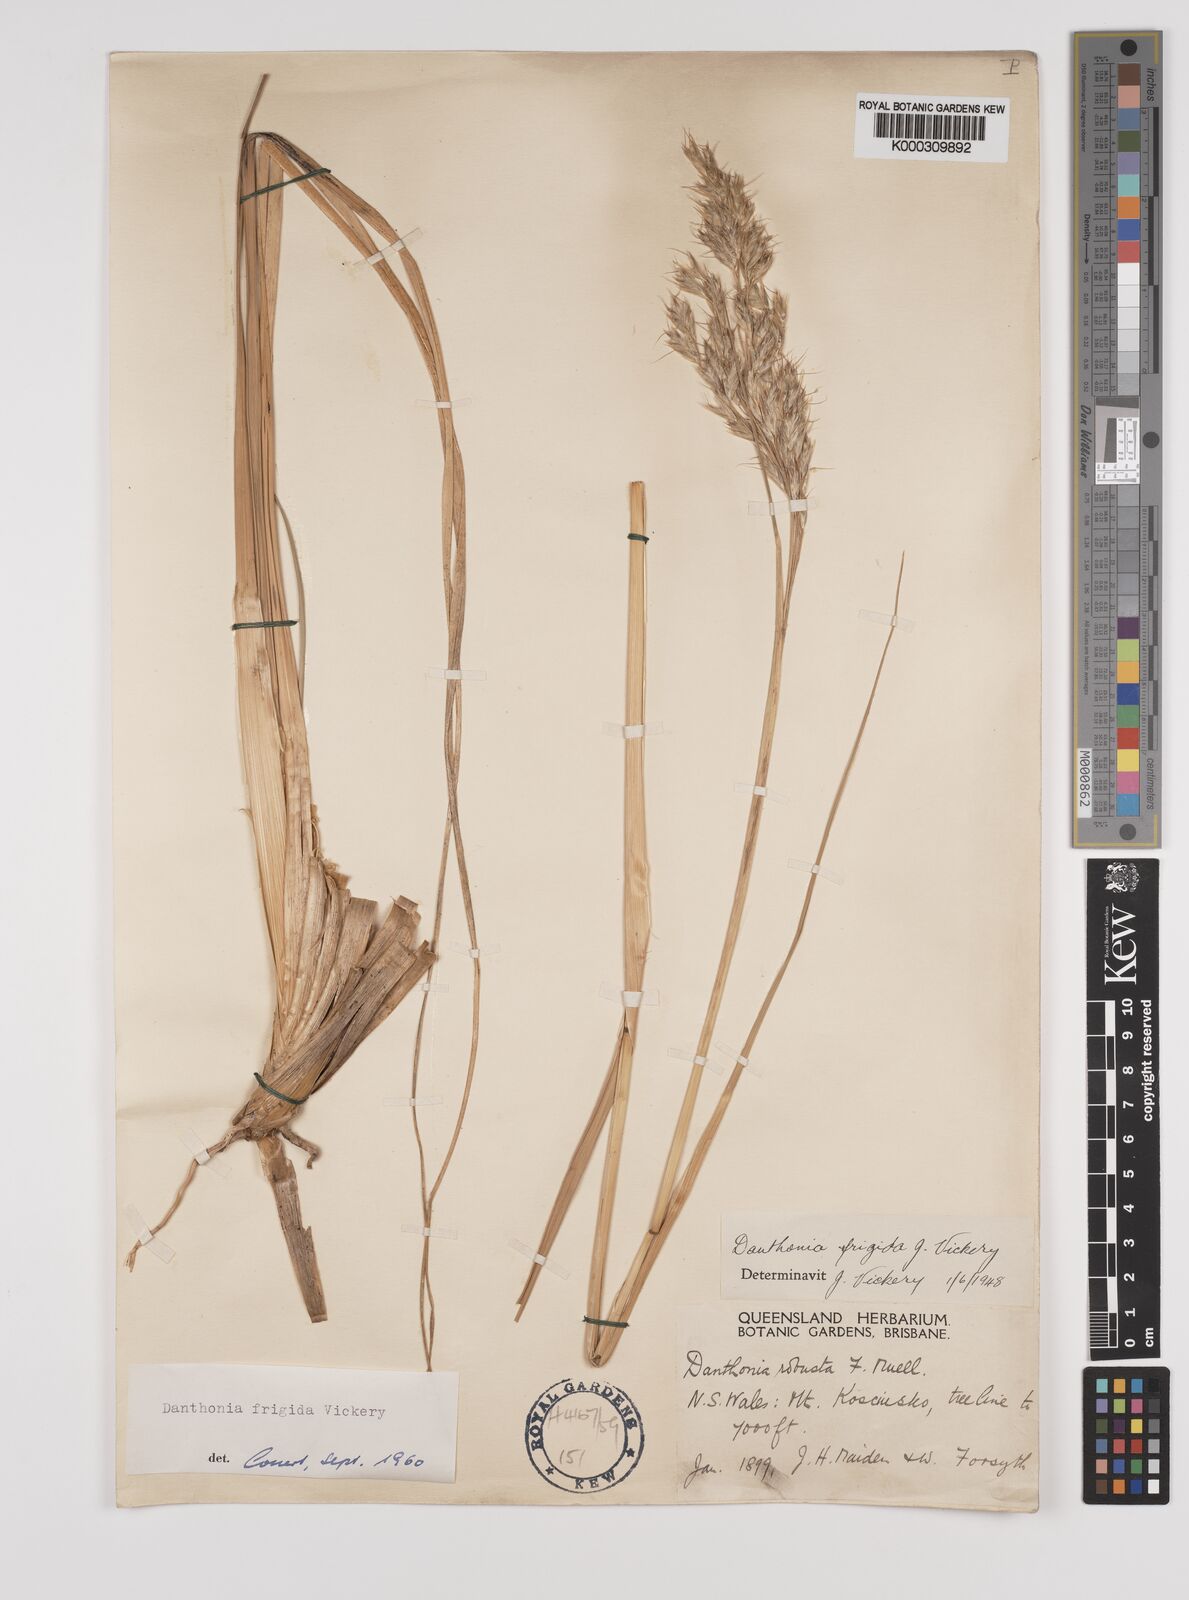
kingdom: Plantae
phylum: Tracheophyta
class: Liliopsida
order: Poales
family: Poaceae
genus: Chionochloa
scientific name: Chionochloa frigida
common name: Robust wallaby grass
